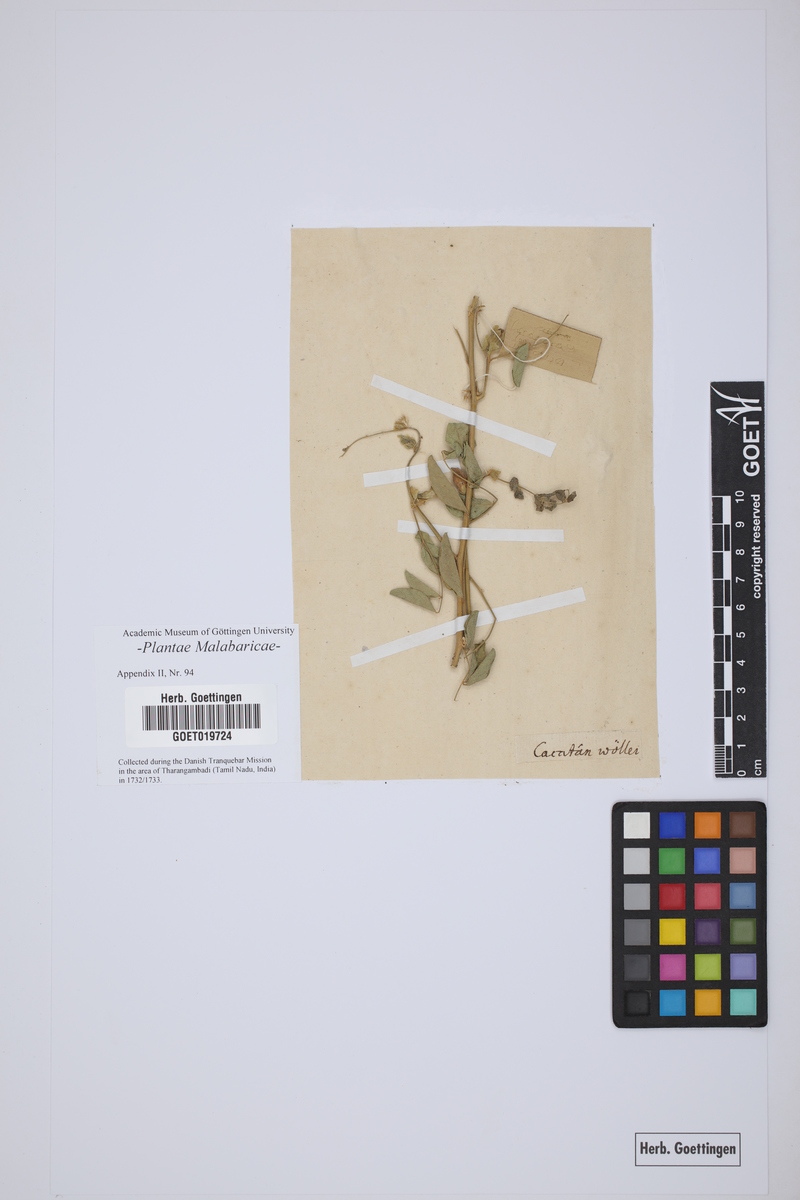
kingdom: Plantae
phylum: Tracheophyta
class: Magnoliopsida
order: Fabales
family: Fabaceae
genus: Clitoria
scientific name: Clitoria ternatea
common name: Asian pigeonwings
